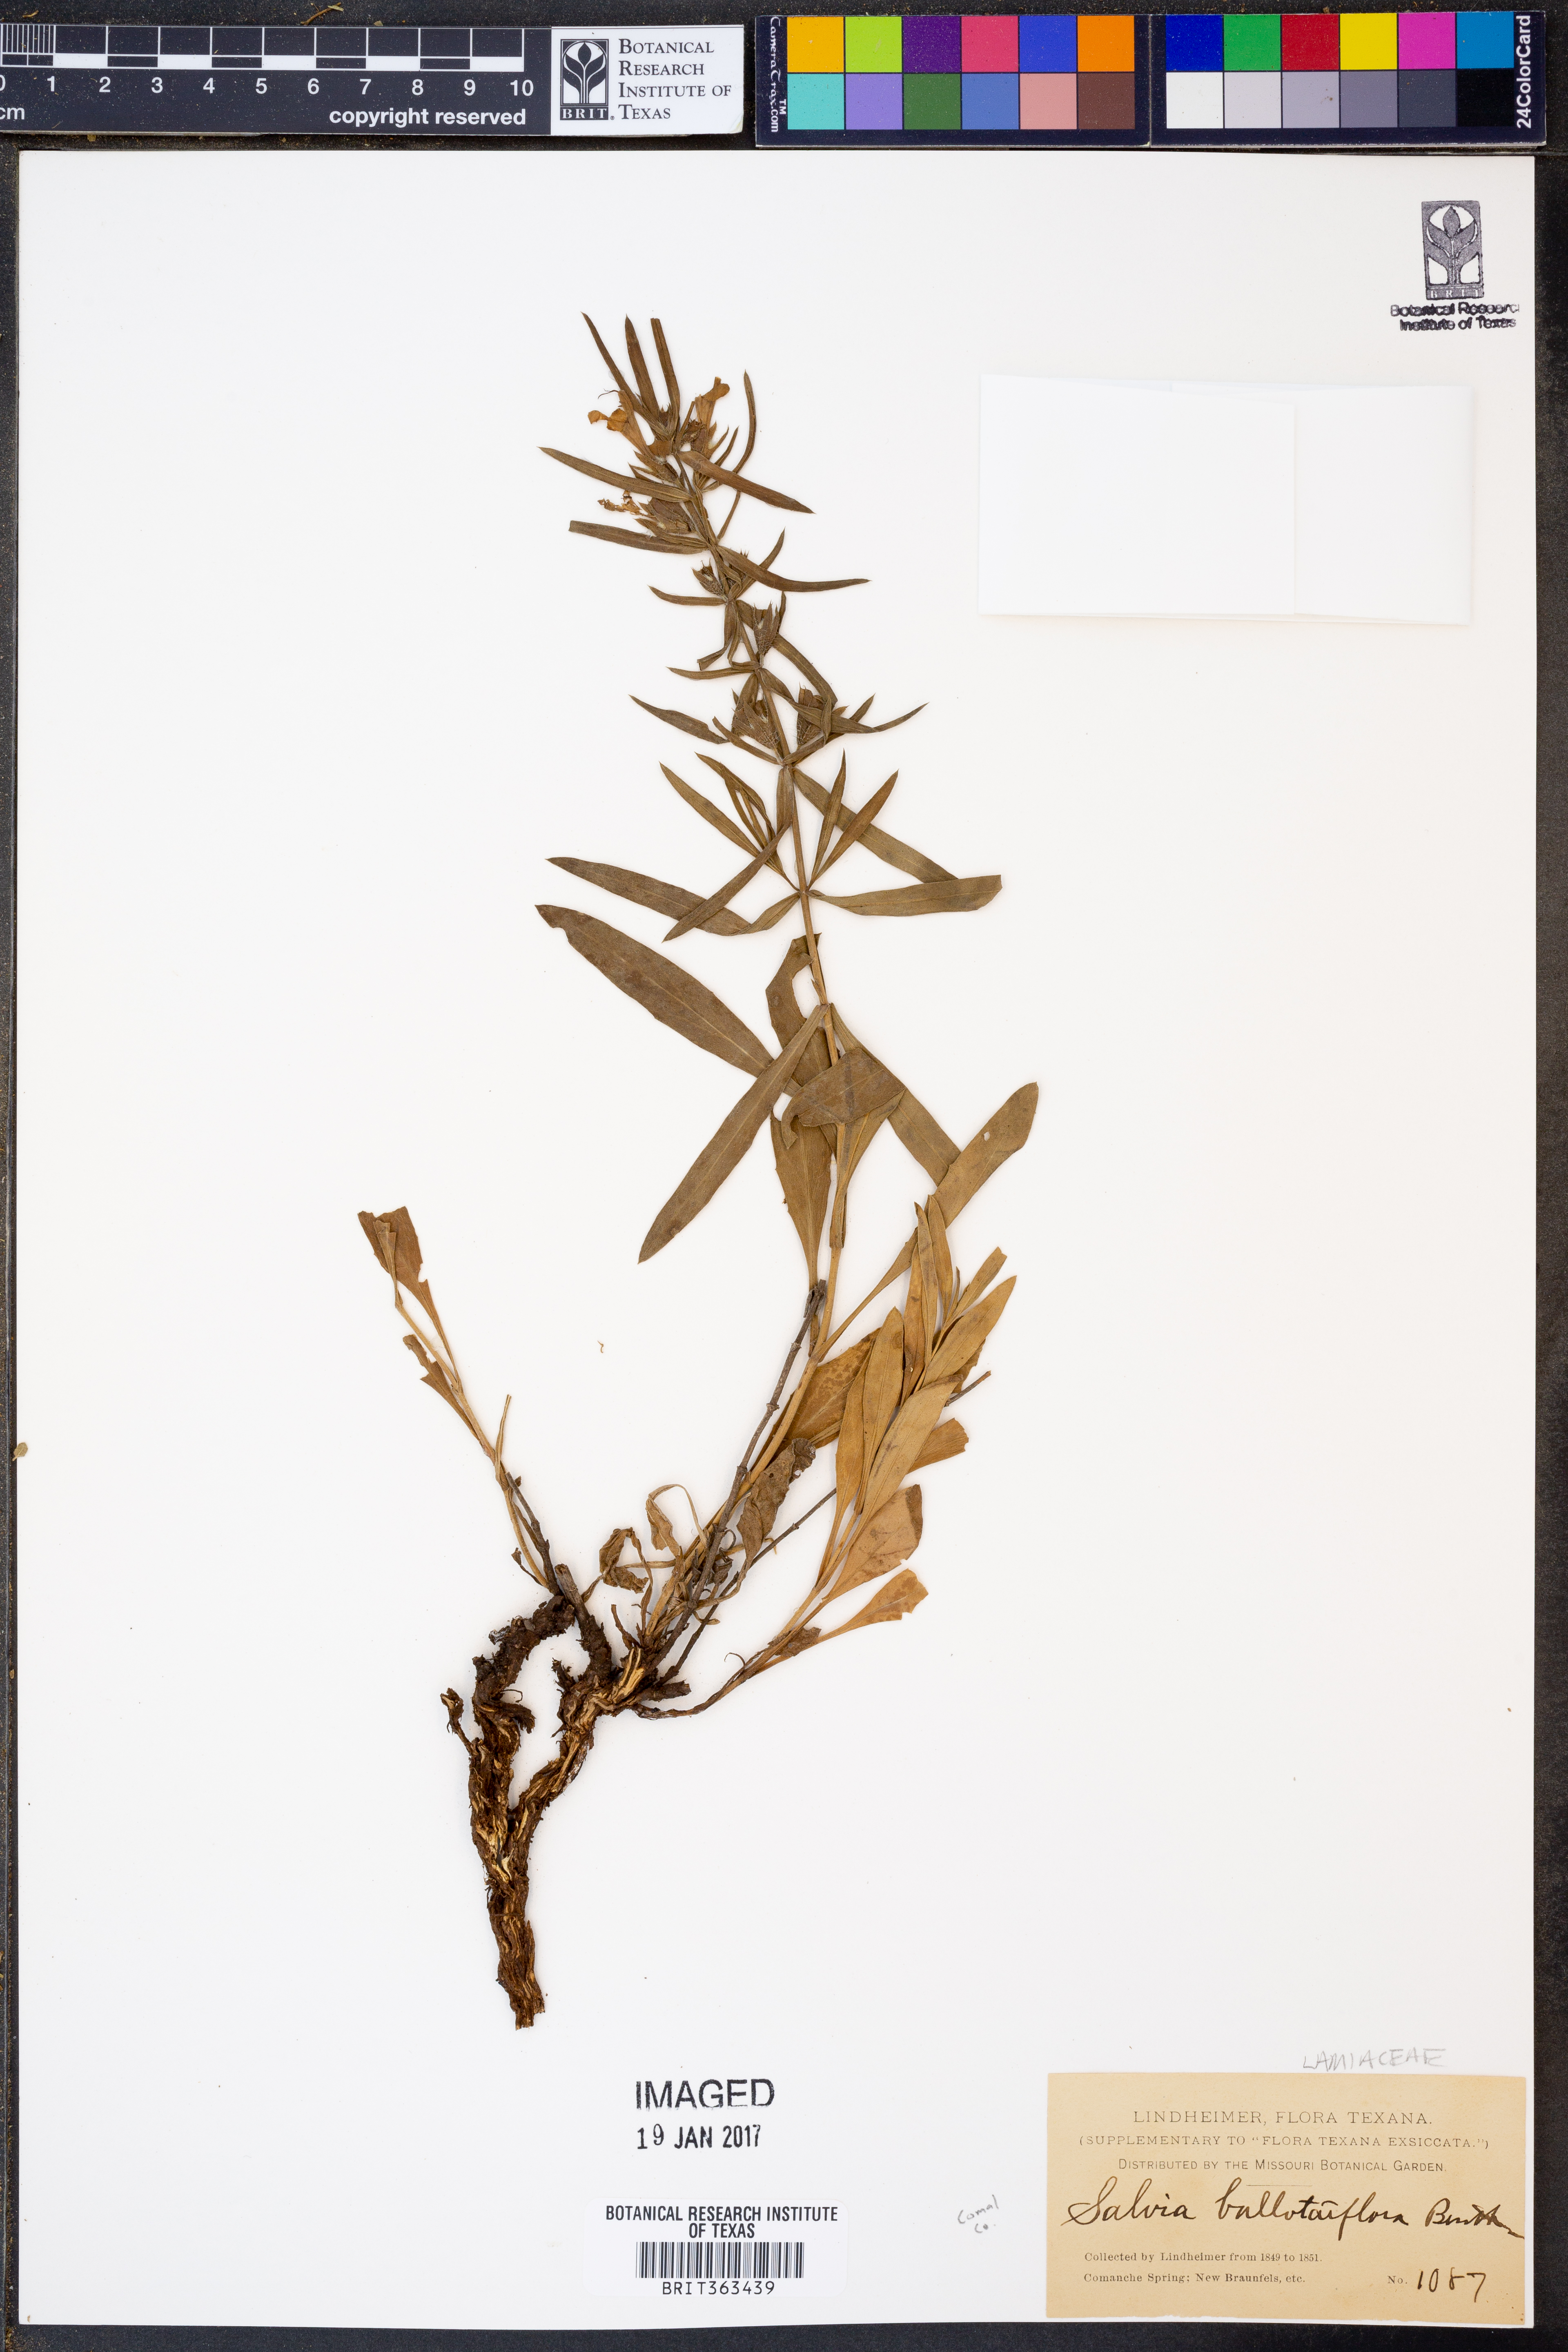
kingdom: Plantae
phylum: Tracheophyta
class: Magnoliopsida
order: Lamiales
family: Lamiaceae
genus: Salvia
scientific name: Salvia ballotiflora
